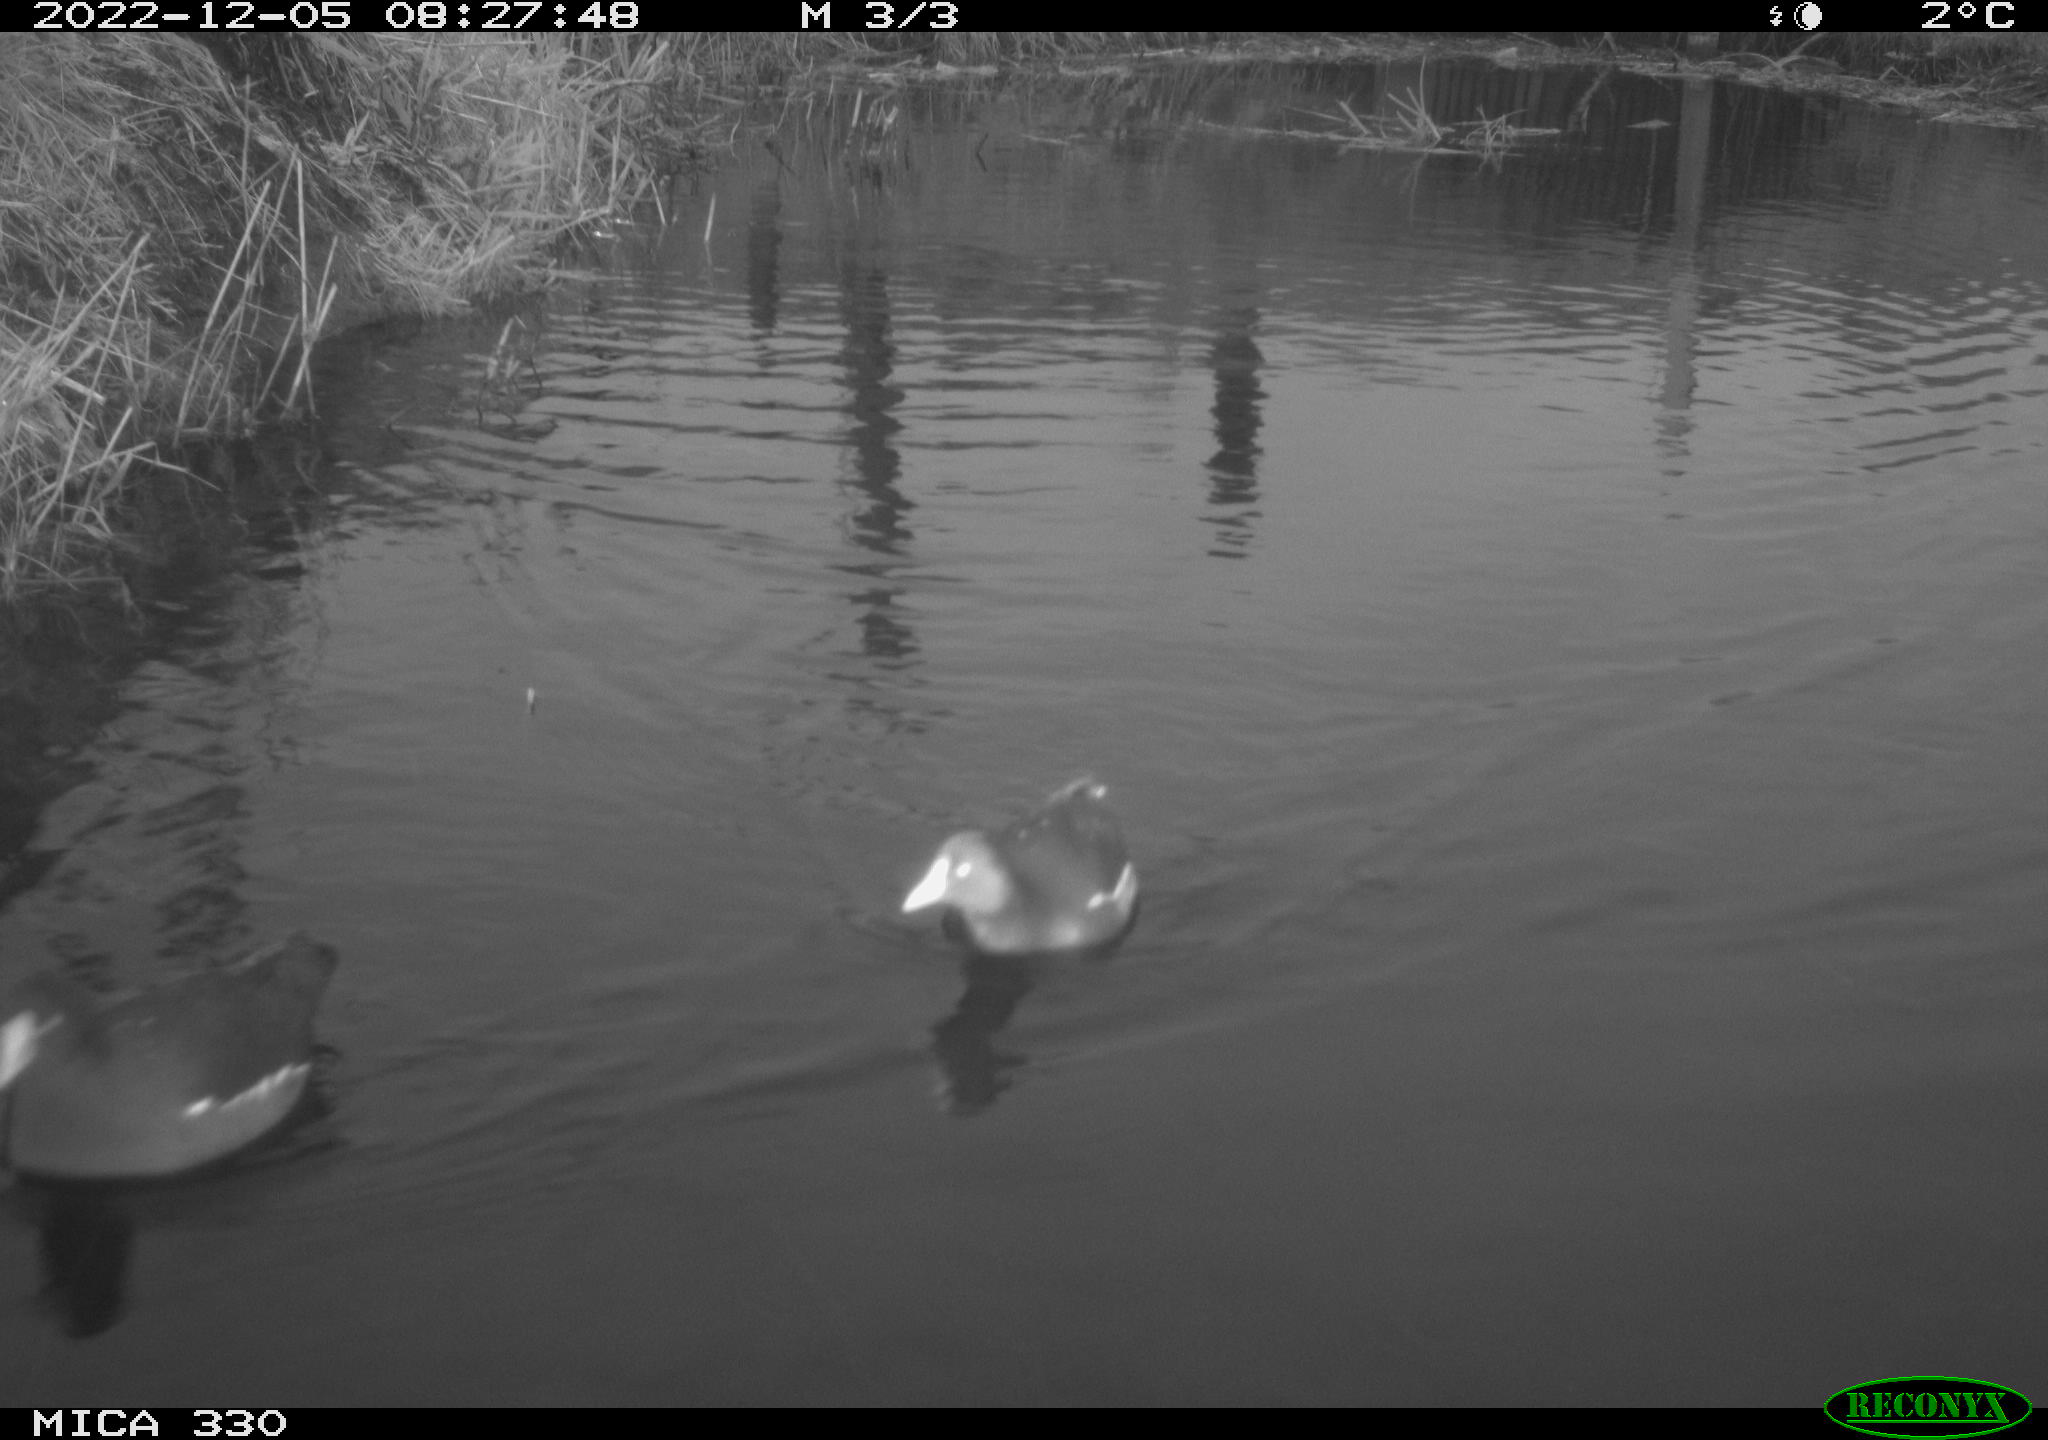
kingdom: Animalia
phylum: Chordata
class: Aves
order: Gruiformes
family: Rallidae
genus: Gallinula
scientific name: Gallinula chloropus
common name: Common moorhen
